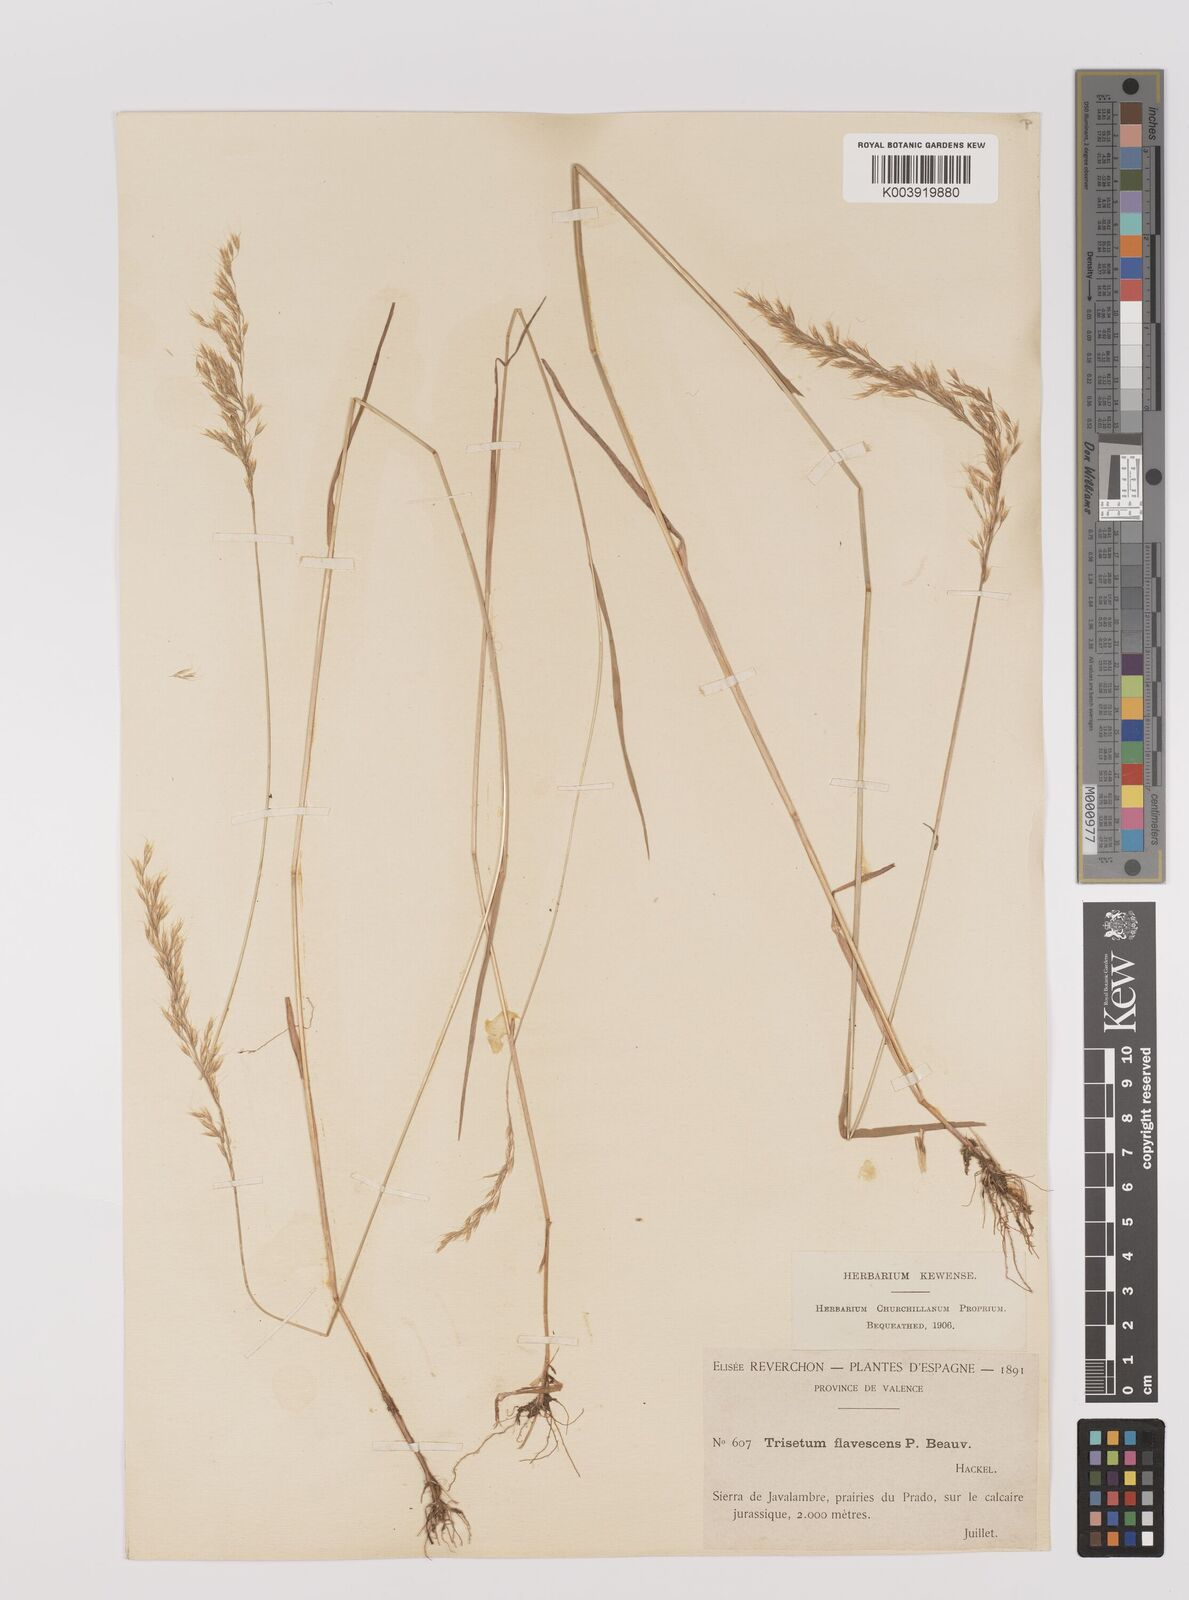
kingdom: Plantae
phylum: Tracheophyta
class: Liliopsida
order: Poales
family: Poaceae
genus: Trisetum
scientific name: Trisetum flavescens
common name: Yellow oat-grass
